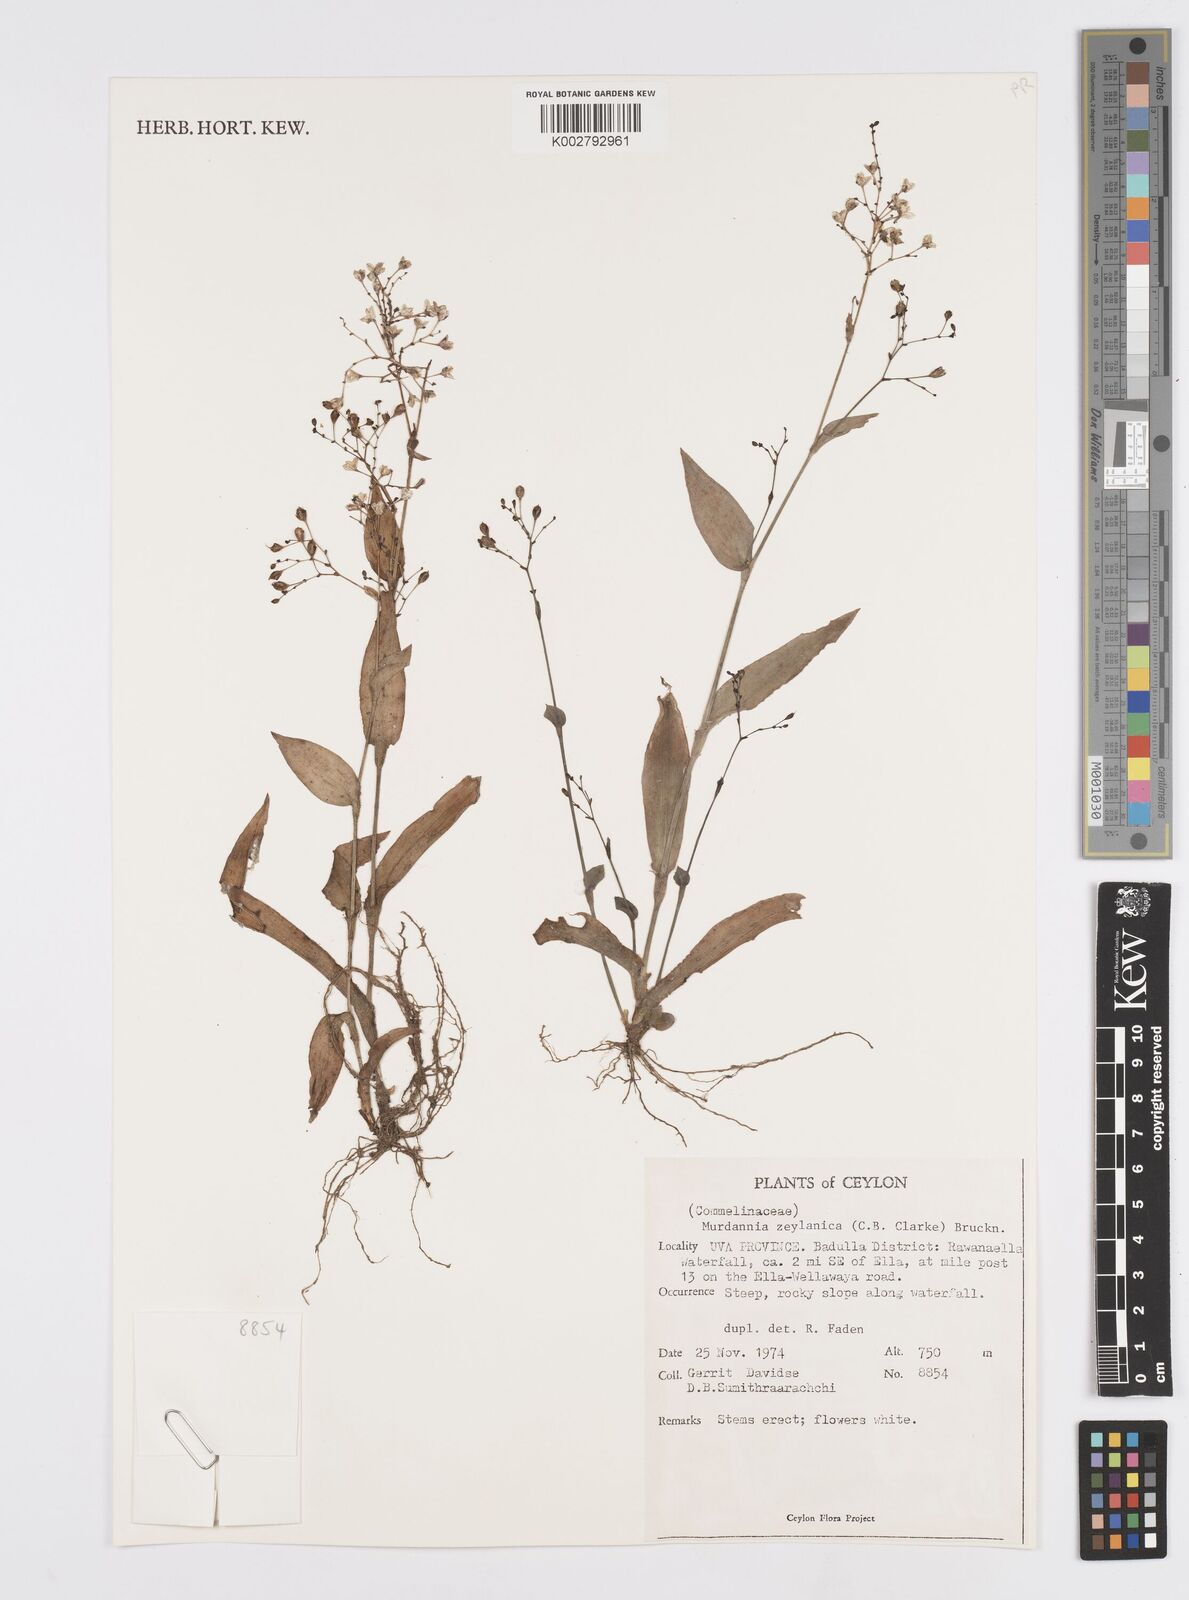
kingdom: Plantae
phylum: Tracheophyta
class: Liliopsida
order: Commelinales
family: Commelinaceae
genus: Murdannia
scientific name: Murdannia zeylanica
